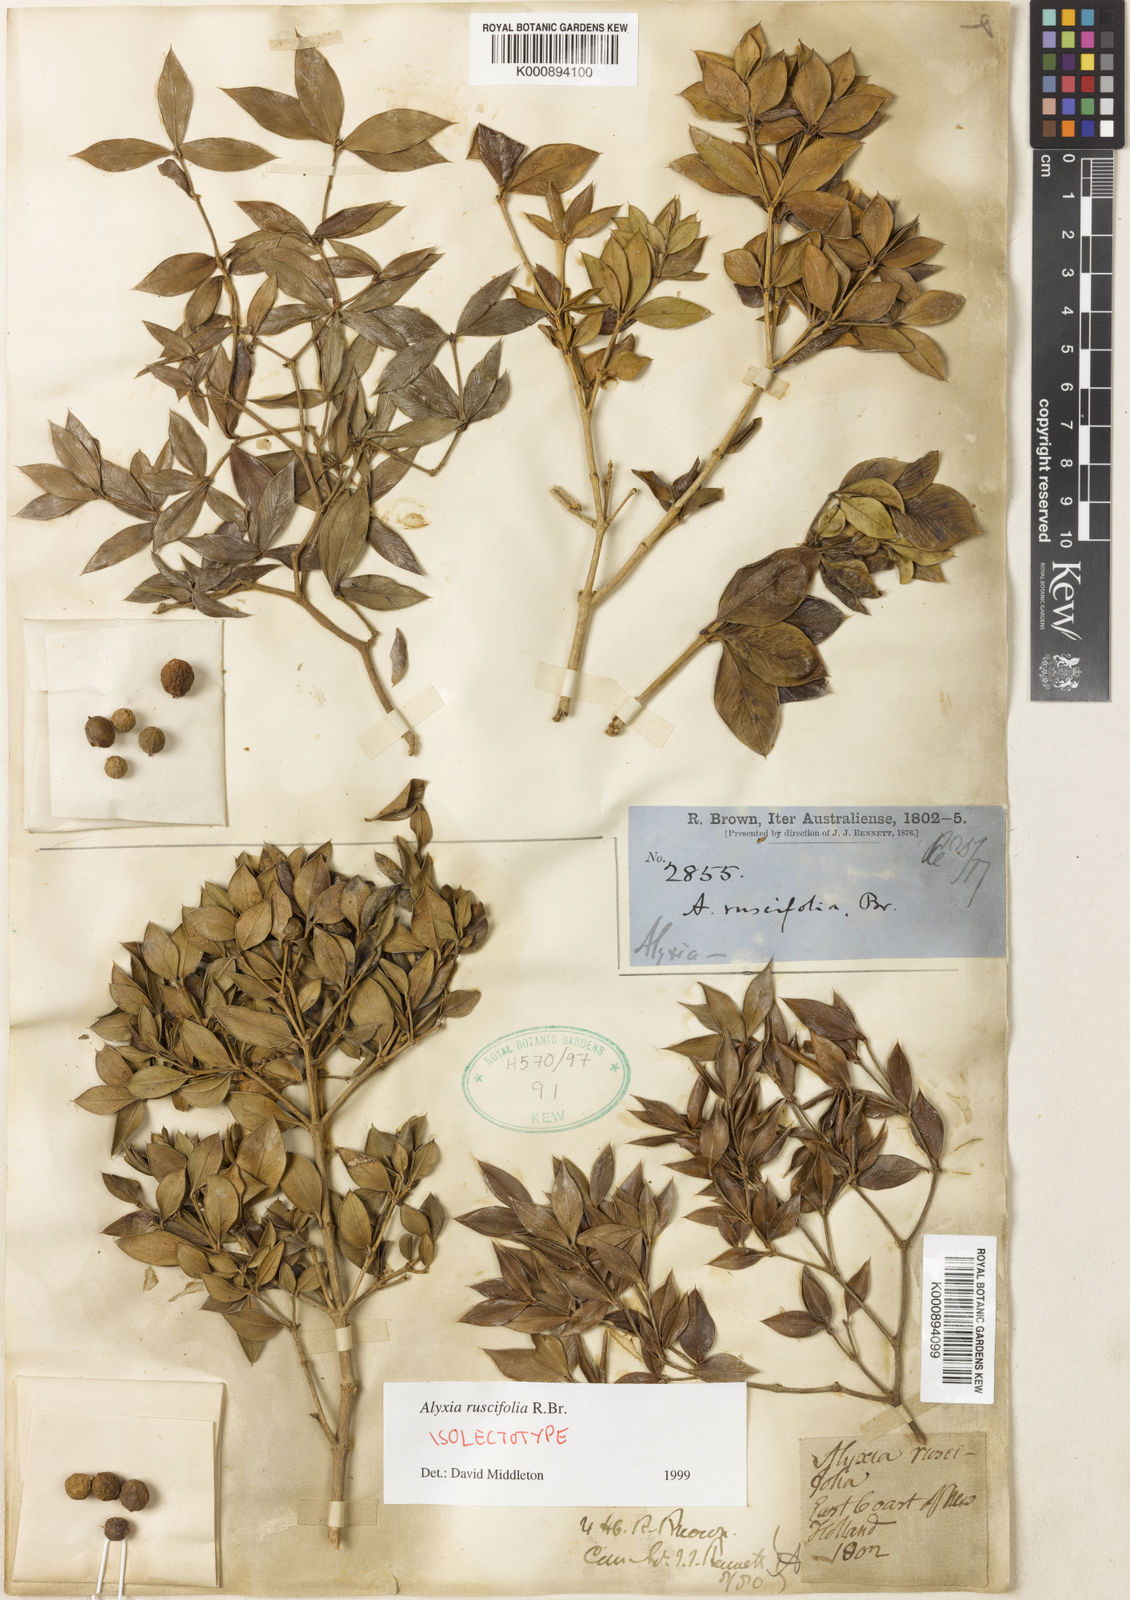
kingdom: Plantae
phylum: Tracheophyta
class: Magnoliopsida
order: Gentianales
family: Apocynaceae
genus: Alyxia
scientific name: Alyxia ruscifolia
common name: Chainfruit
